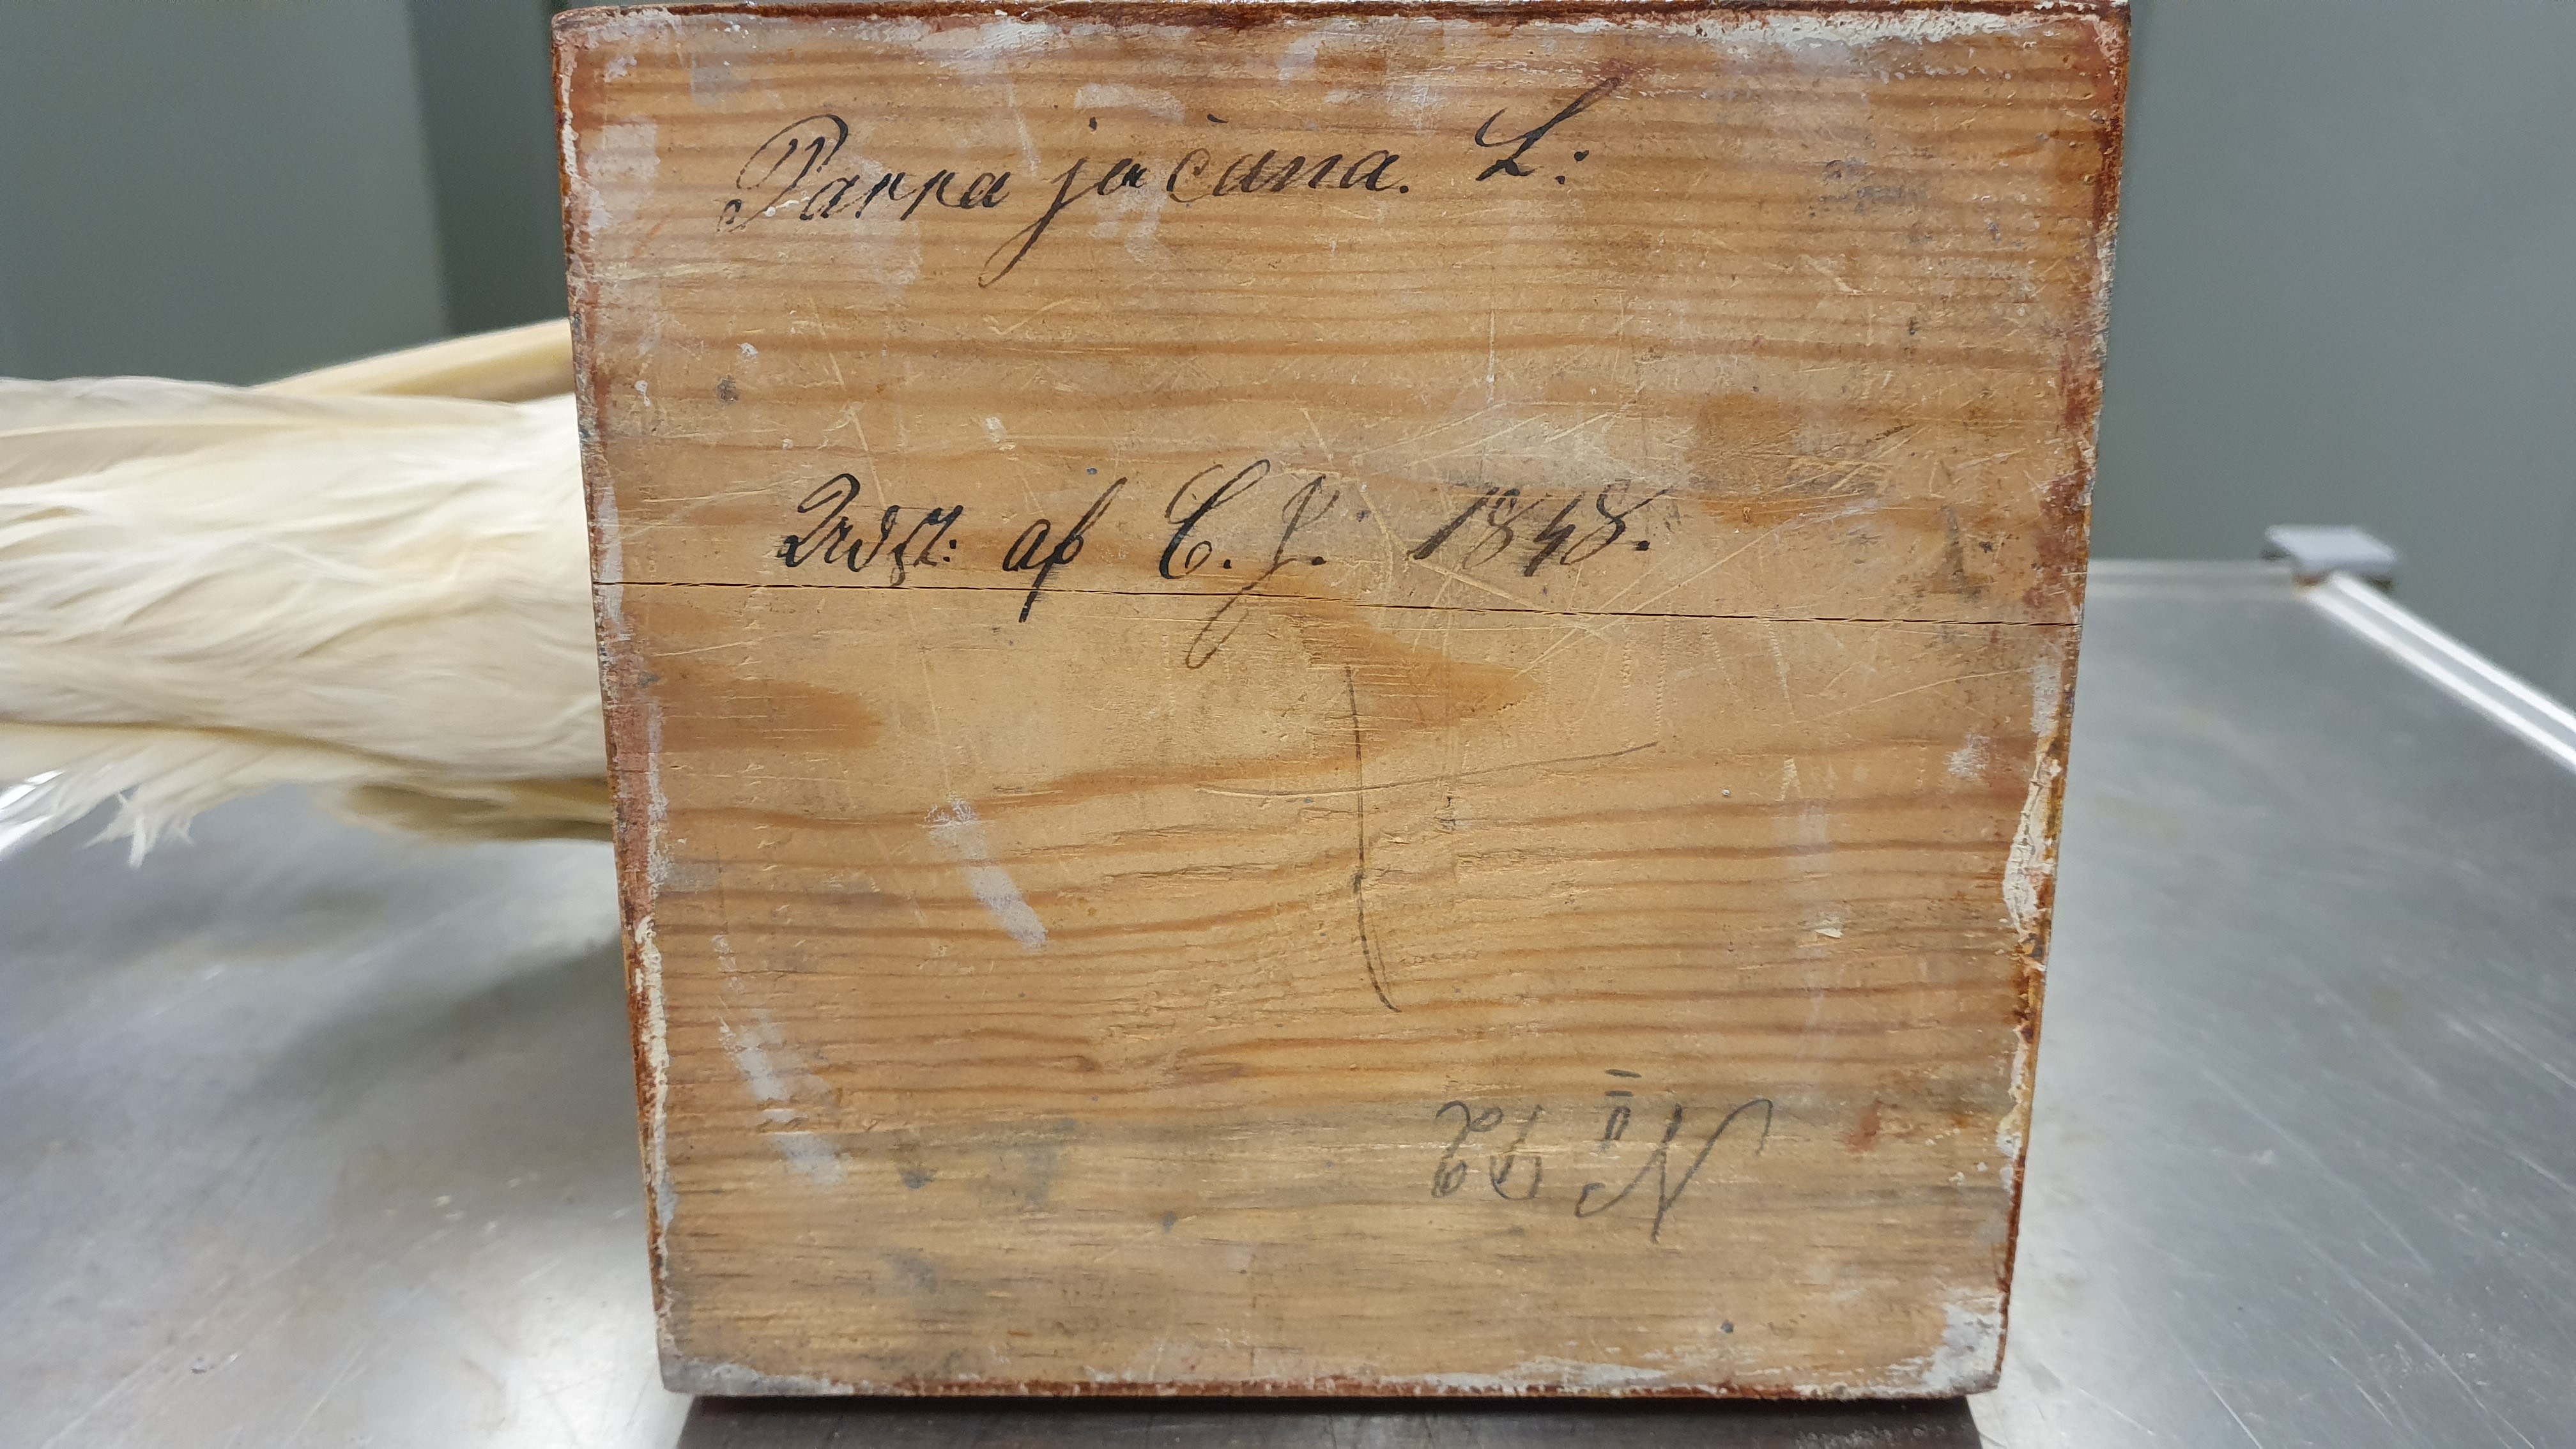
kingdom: Animalia
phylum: Chordata
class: Aves
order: Charadriiformes
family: Laridae
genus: Pagophila
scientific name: Pagophila eburnea
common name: Ivory gull
